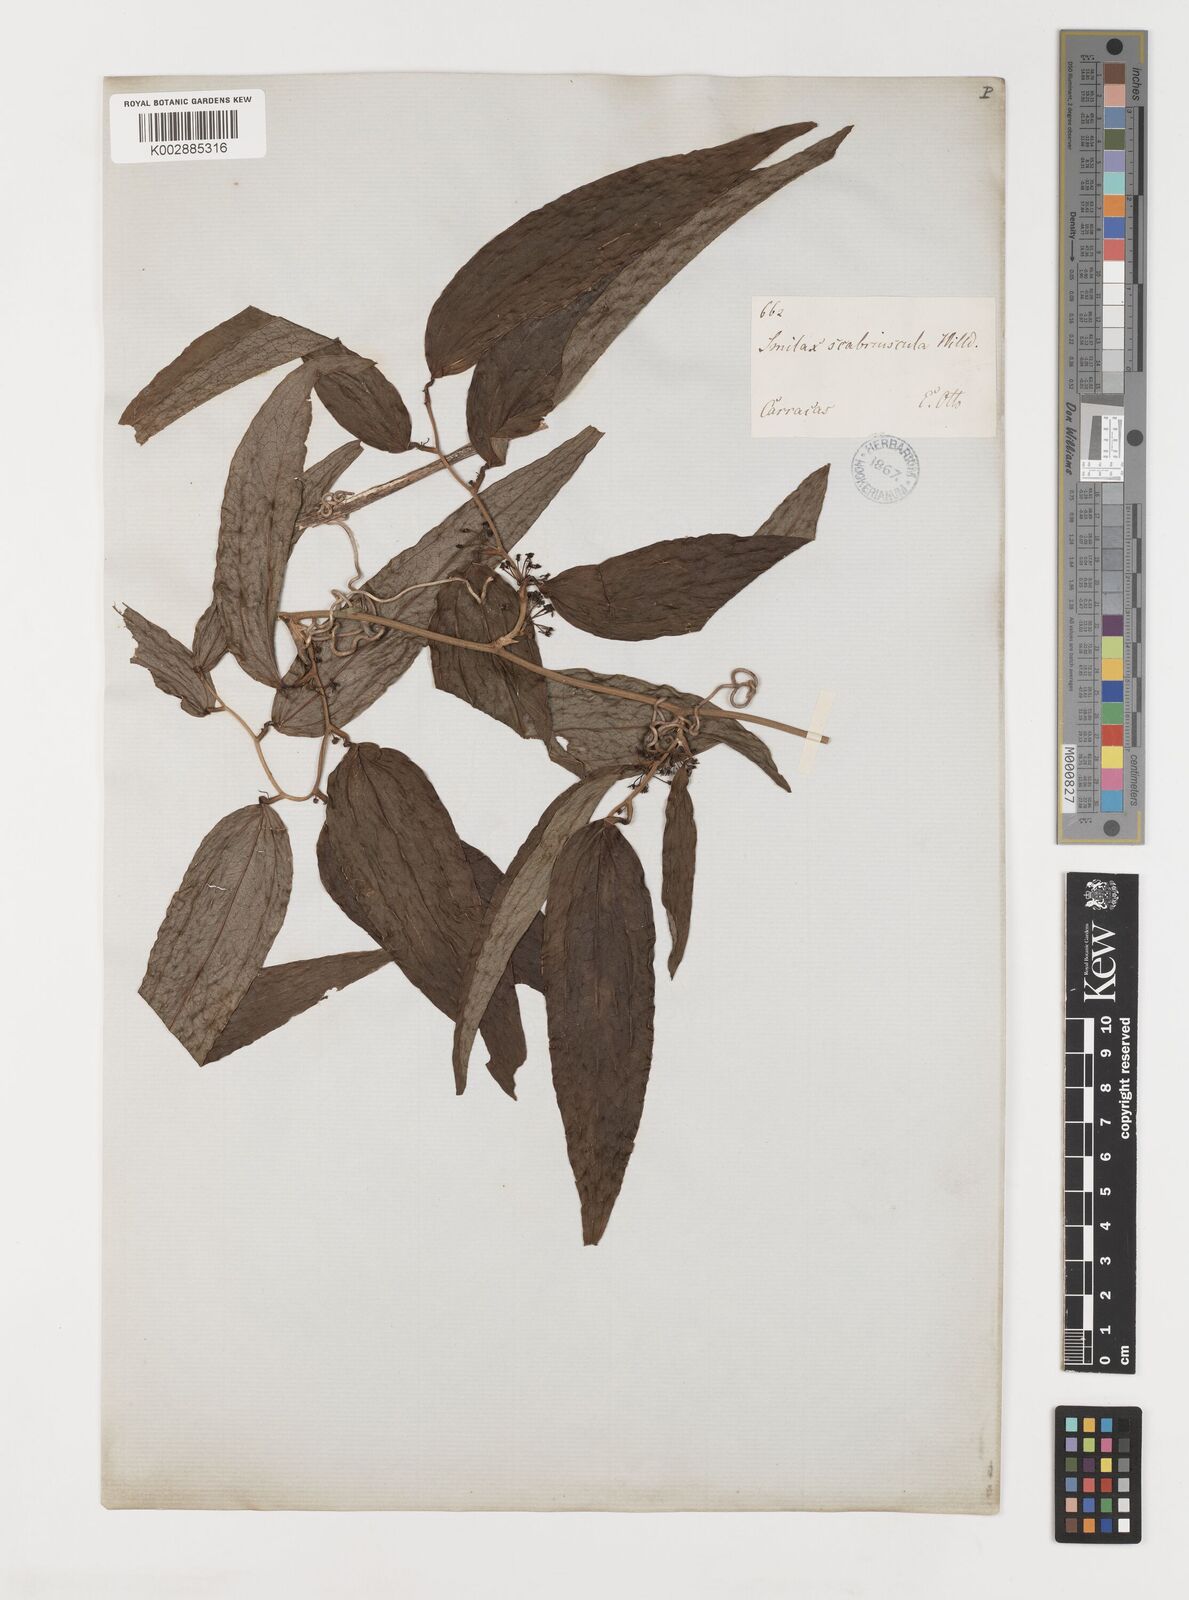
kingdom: Plantae
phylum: Tracheophyta
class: Liliopsida
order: Liliales
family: Smilacaceae
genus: Smilax
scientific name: Smilax spinosa
